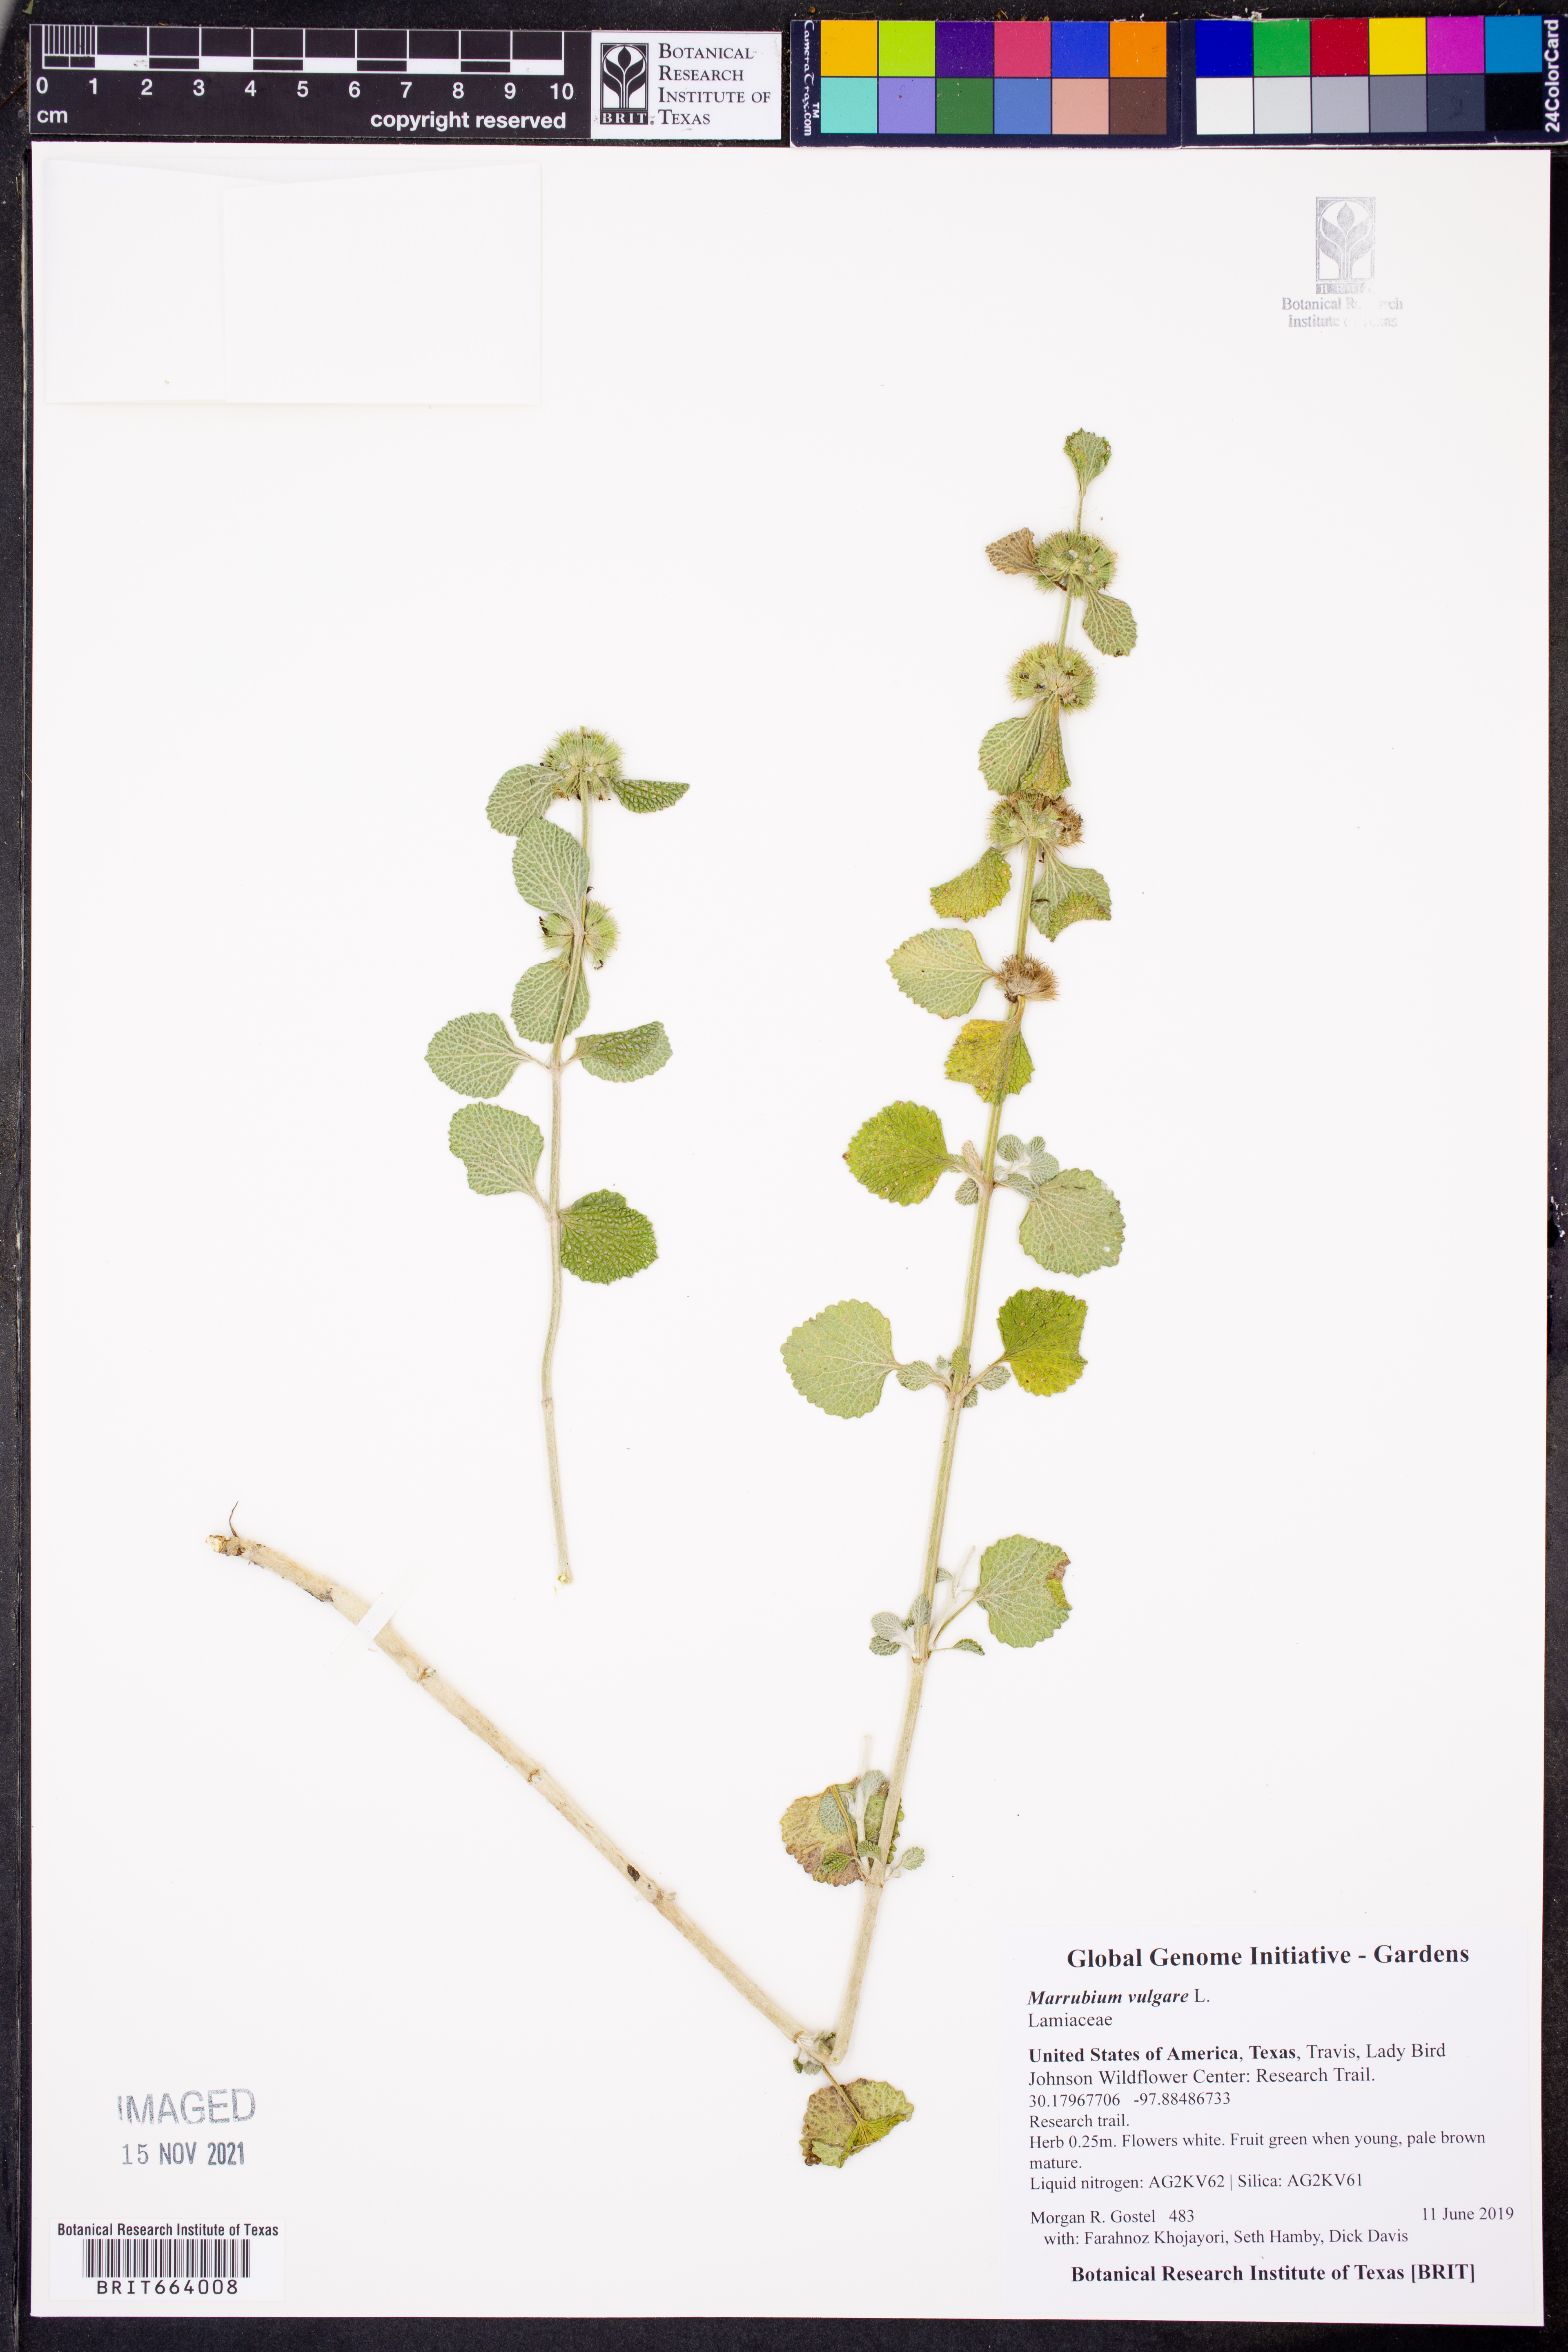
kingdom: Plantae
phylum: Tracheophyta
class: Magnoliopsida
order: Lamiales
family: Lamiaceae
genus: Marrubium
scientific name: Marrubium vulgare
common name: Horehound
